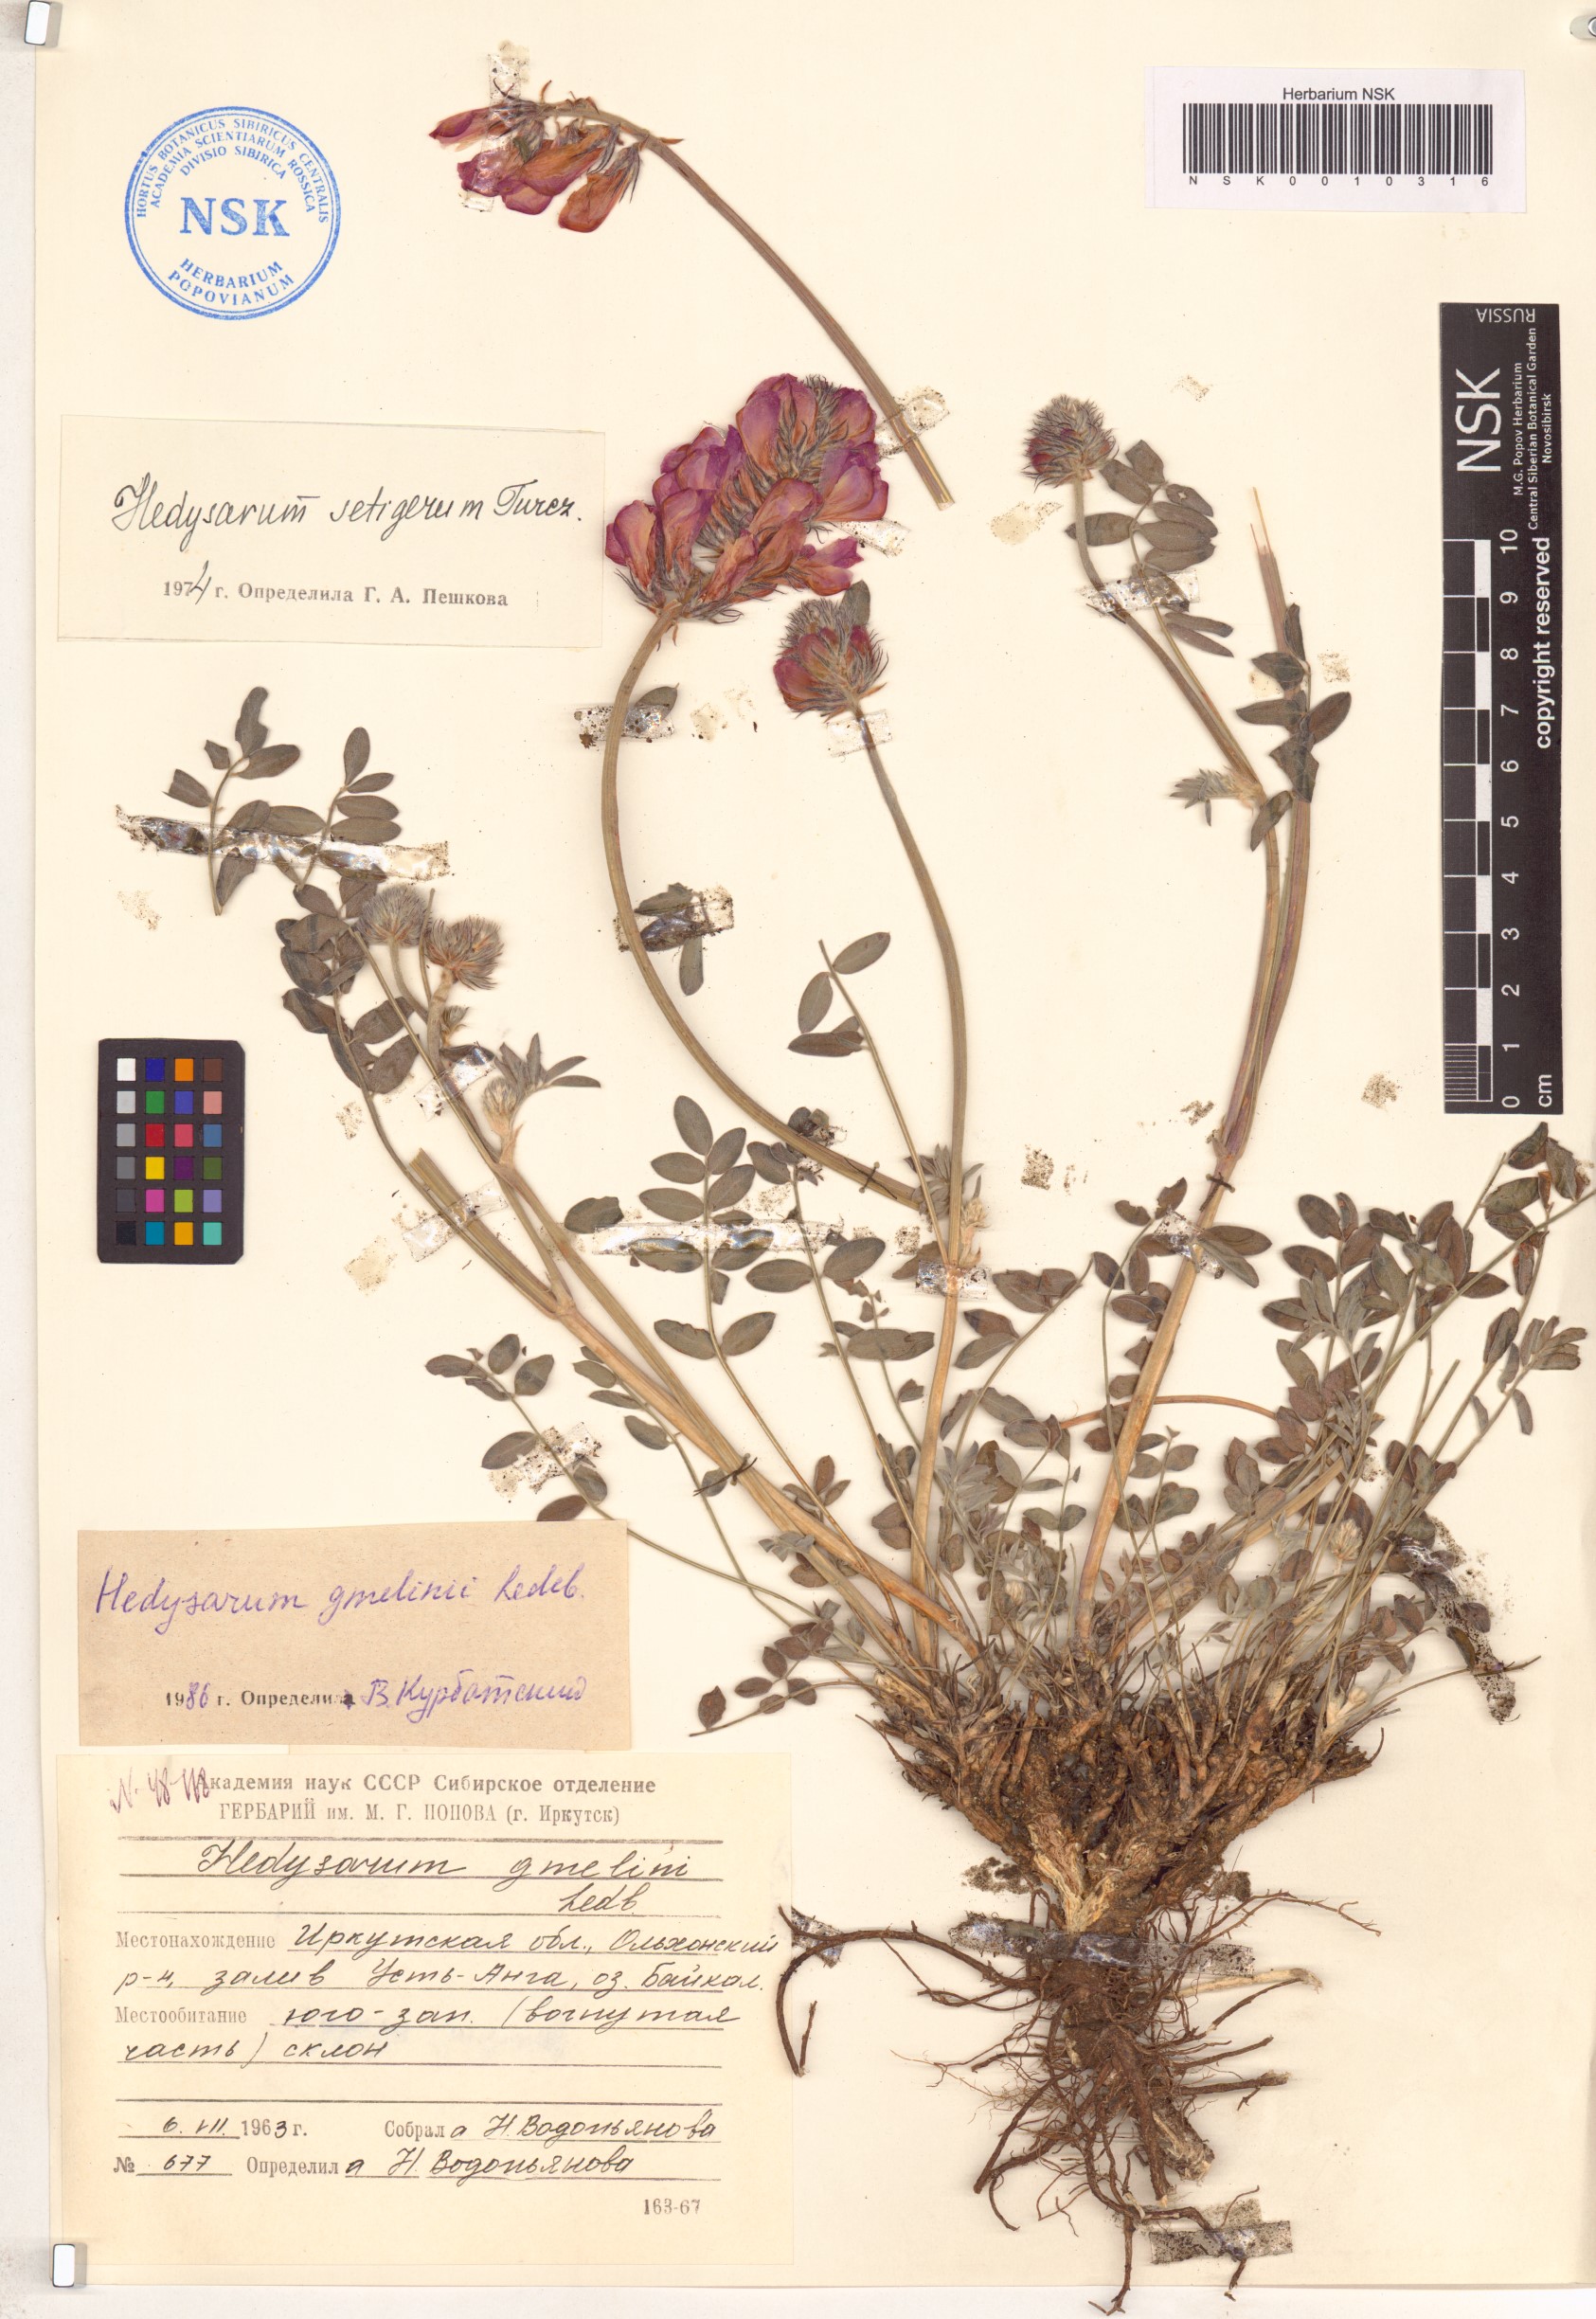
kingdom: Plantae
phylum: Tracheophyta
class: Magnoliopsida
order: Fabales
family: Fabaceae
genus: Hedysarum
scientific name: Hedysarum gmelinii
